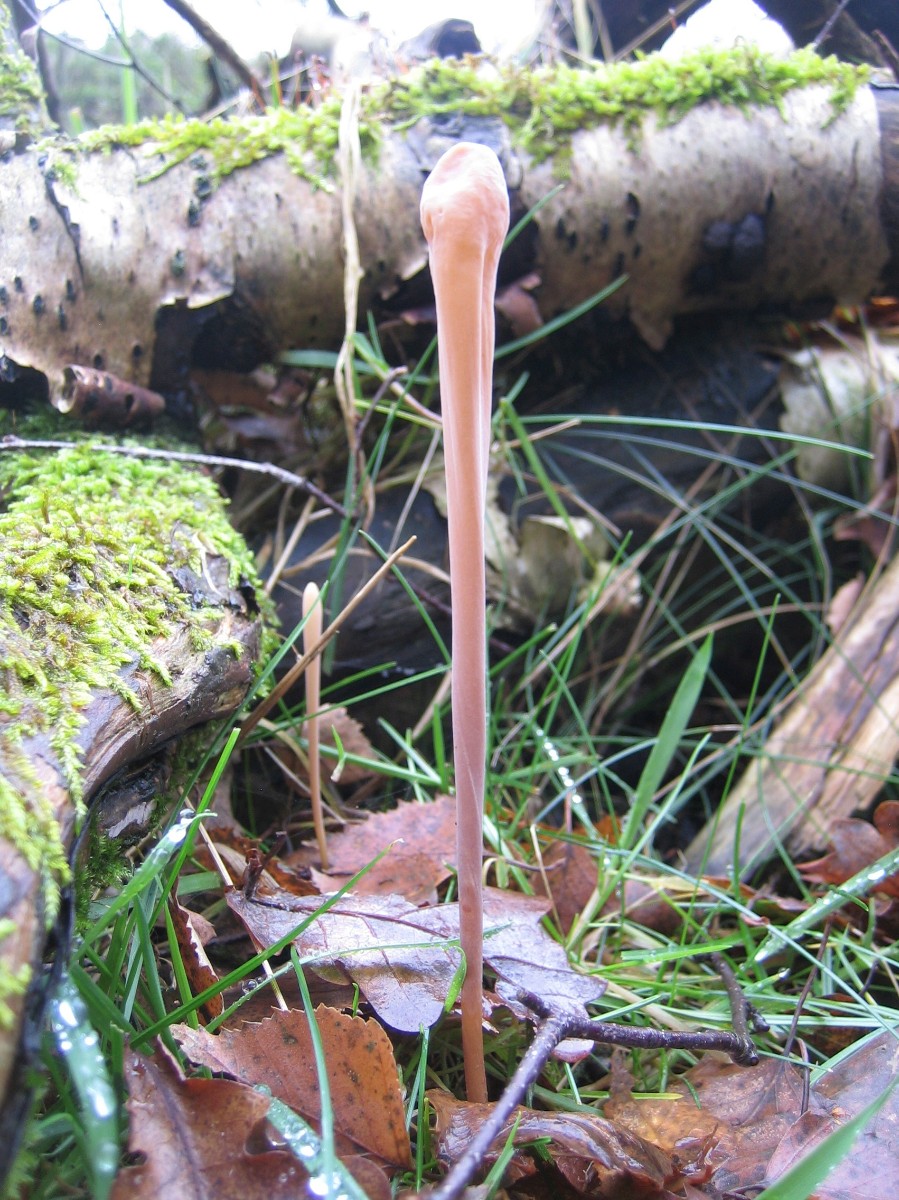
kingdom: Fungi
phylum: Basidiomycota
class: Agaricomycetes
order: Agaricales
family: Typhulaceae
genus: Typhula
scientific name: Typhula fistulosa
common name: pibet rørkølle
